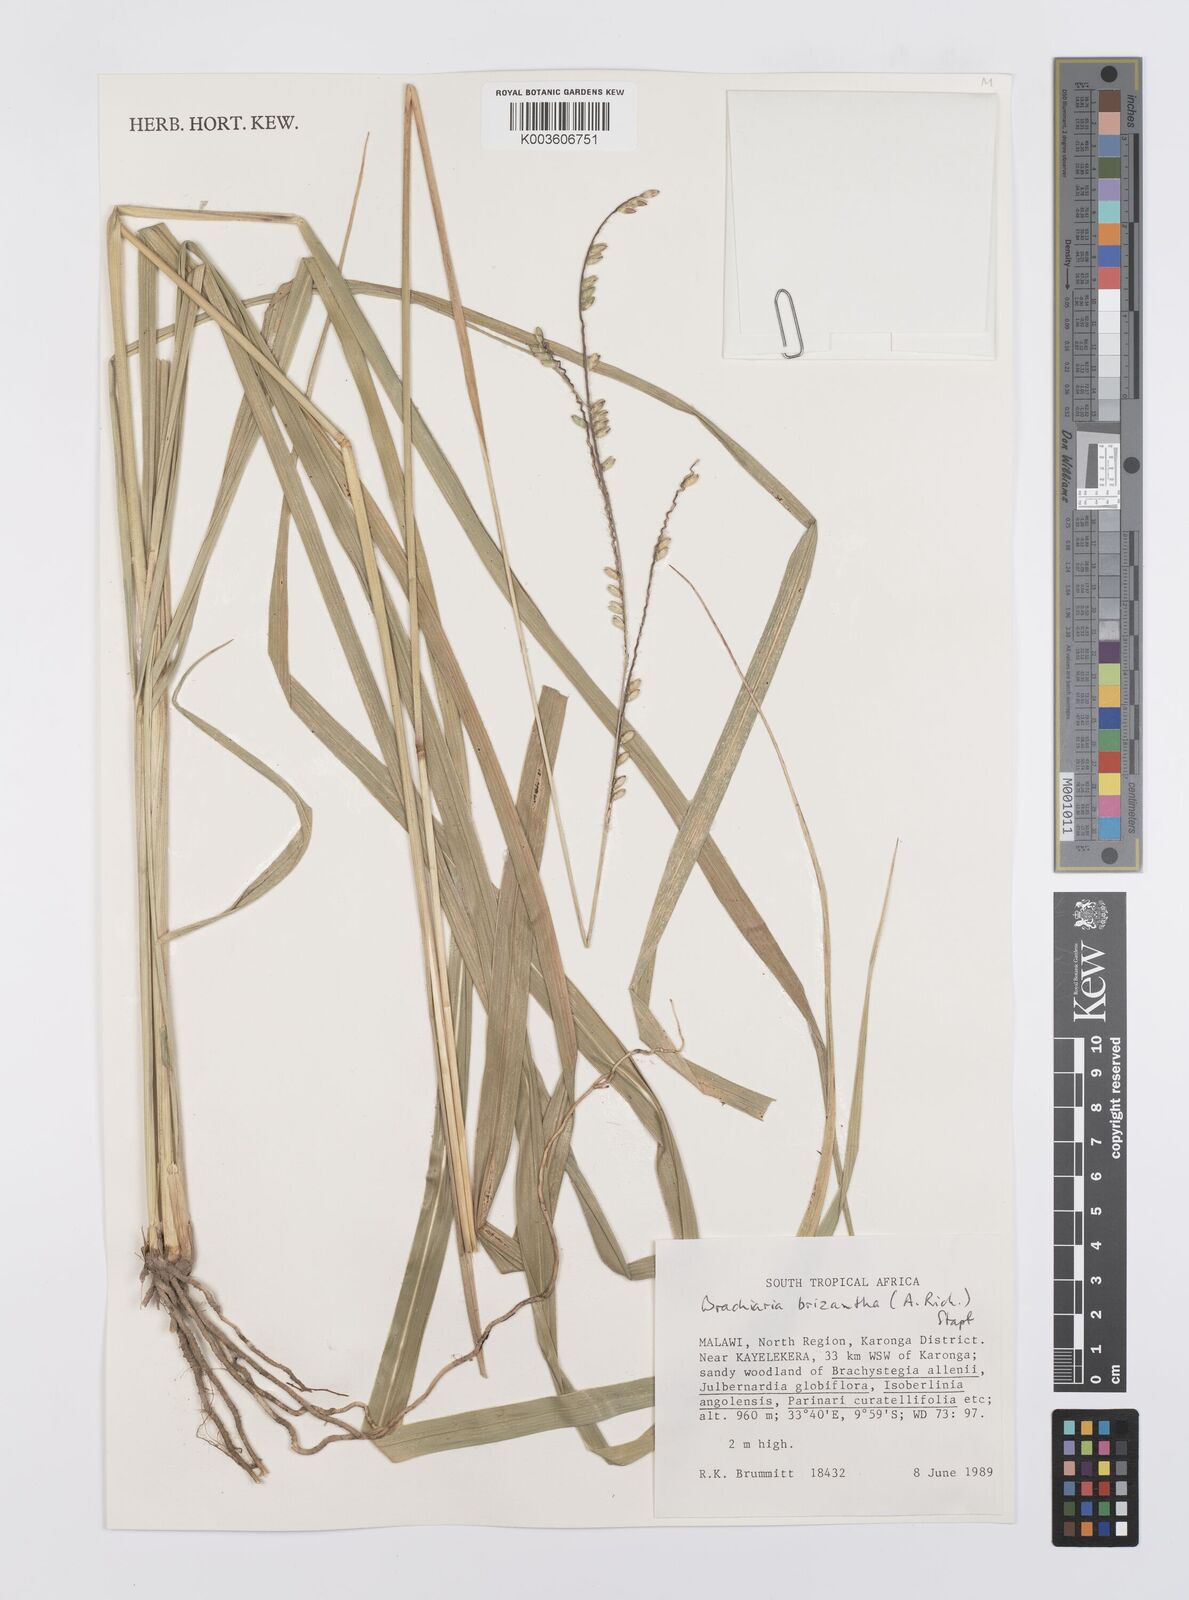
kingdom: Plantae
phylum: Tracheophyta
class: Liliopsida
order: Poales
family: Poaceae
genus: Urochloa
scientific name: Urochloa brizantha
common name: Palisade signalgrass
